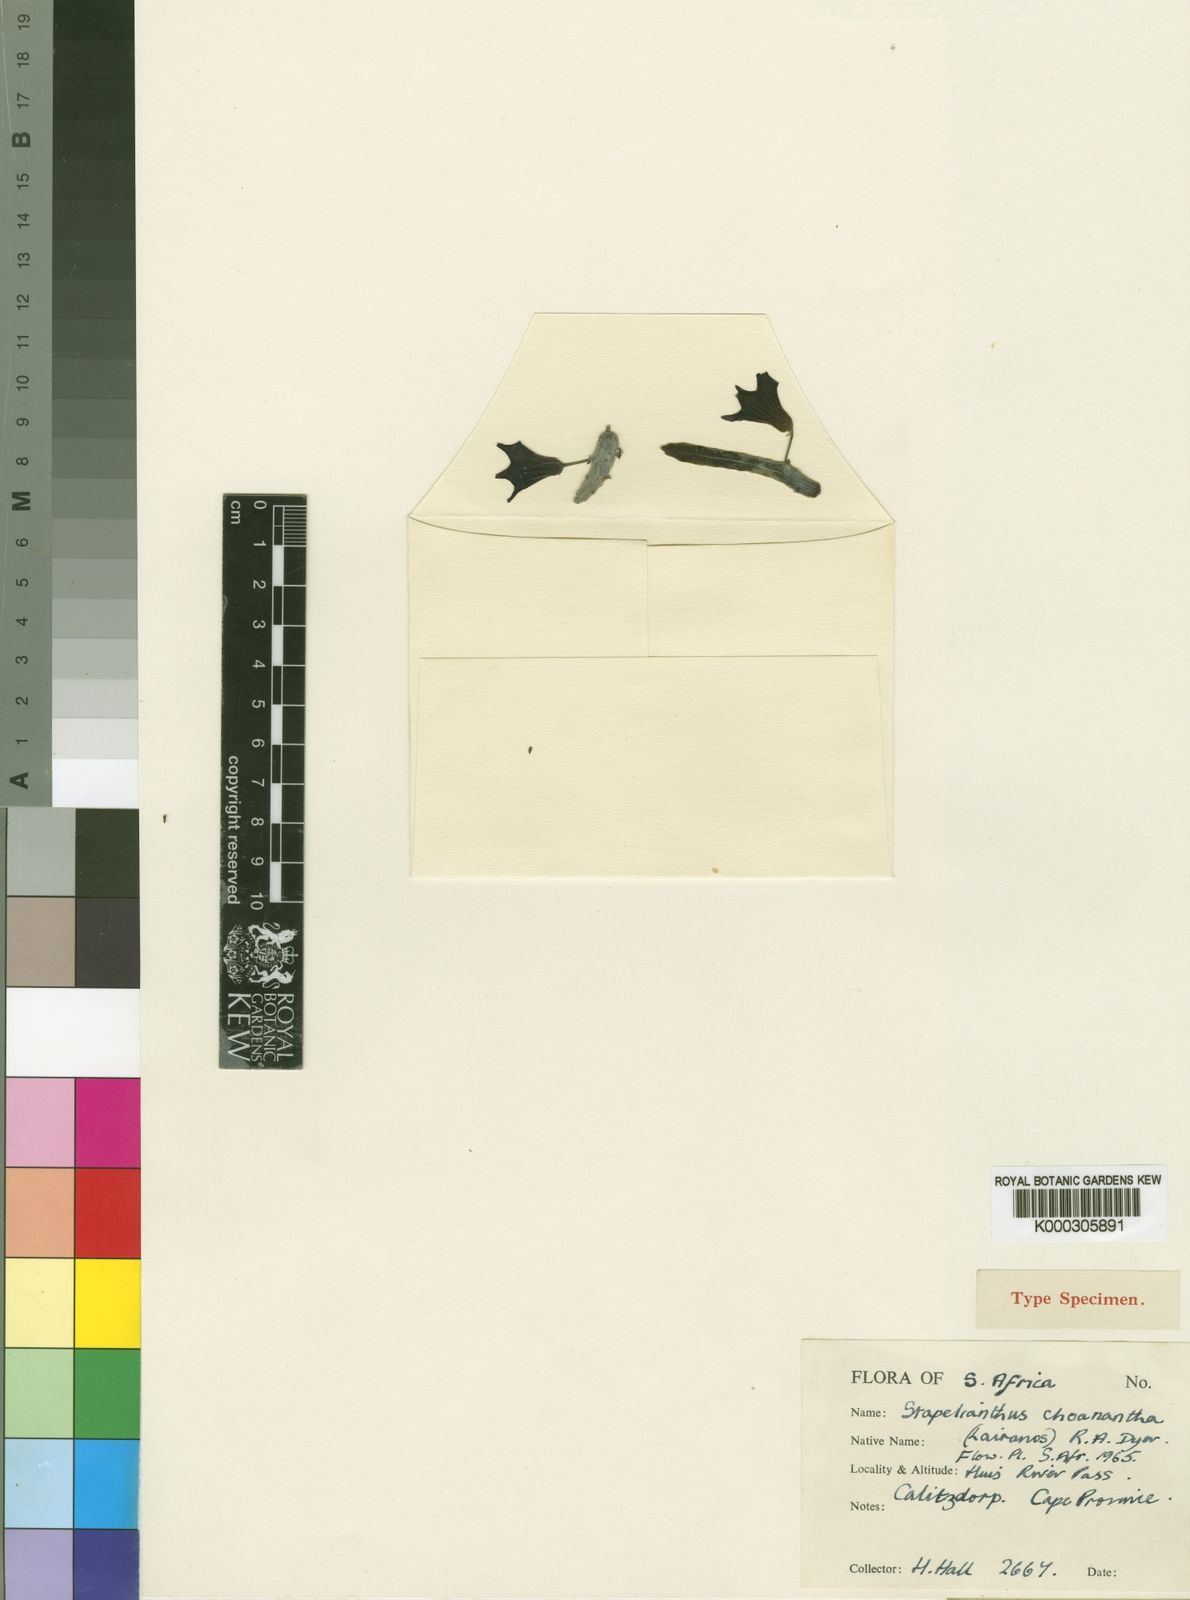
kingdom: Plantae
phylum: Tracheophyta
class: Magnoliopsida
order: Gentianales
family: Apocynaceae
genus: Stapelianthus
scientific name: Stapelianthus
